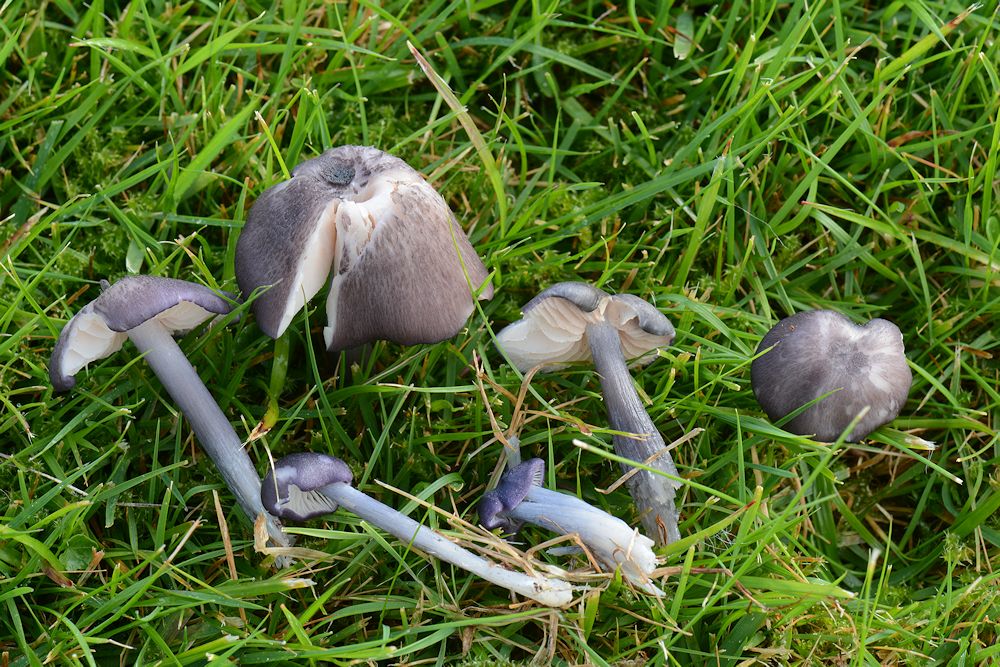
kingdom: Fungi
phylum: Basidiomycota
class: Agaricomycetes
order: Agaricales
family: Entolomataceae
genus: Entoloma
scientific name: Entoloma viiduense
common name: purpurbrun rødblad
